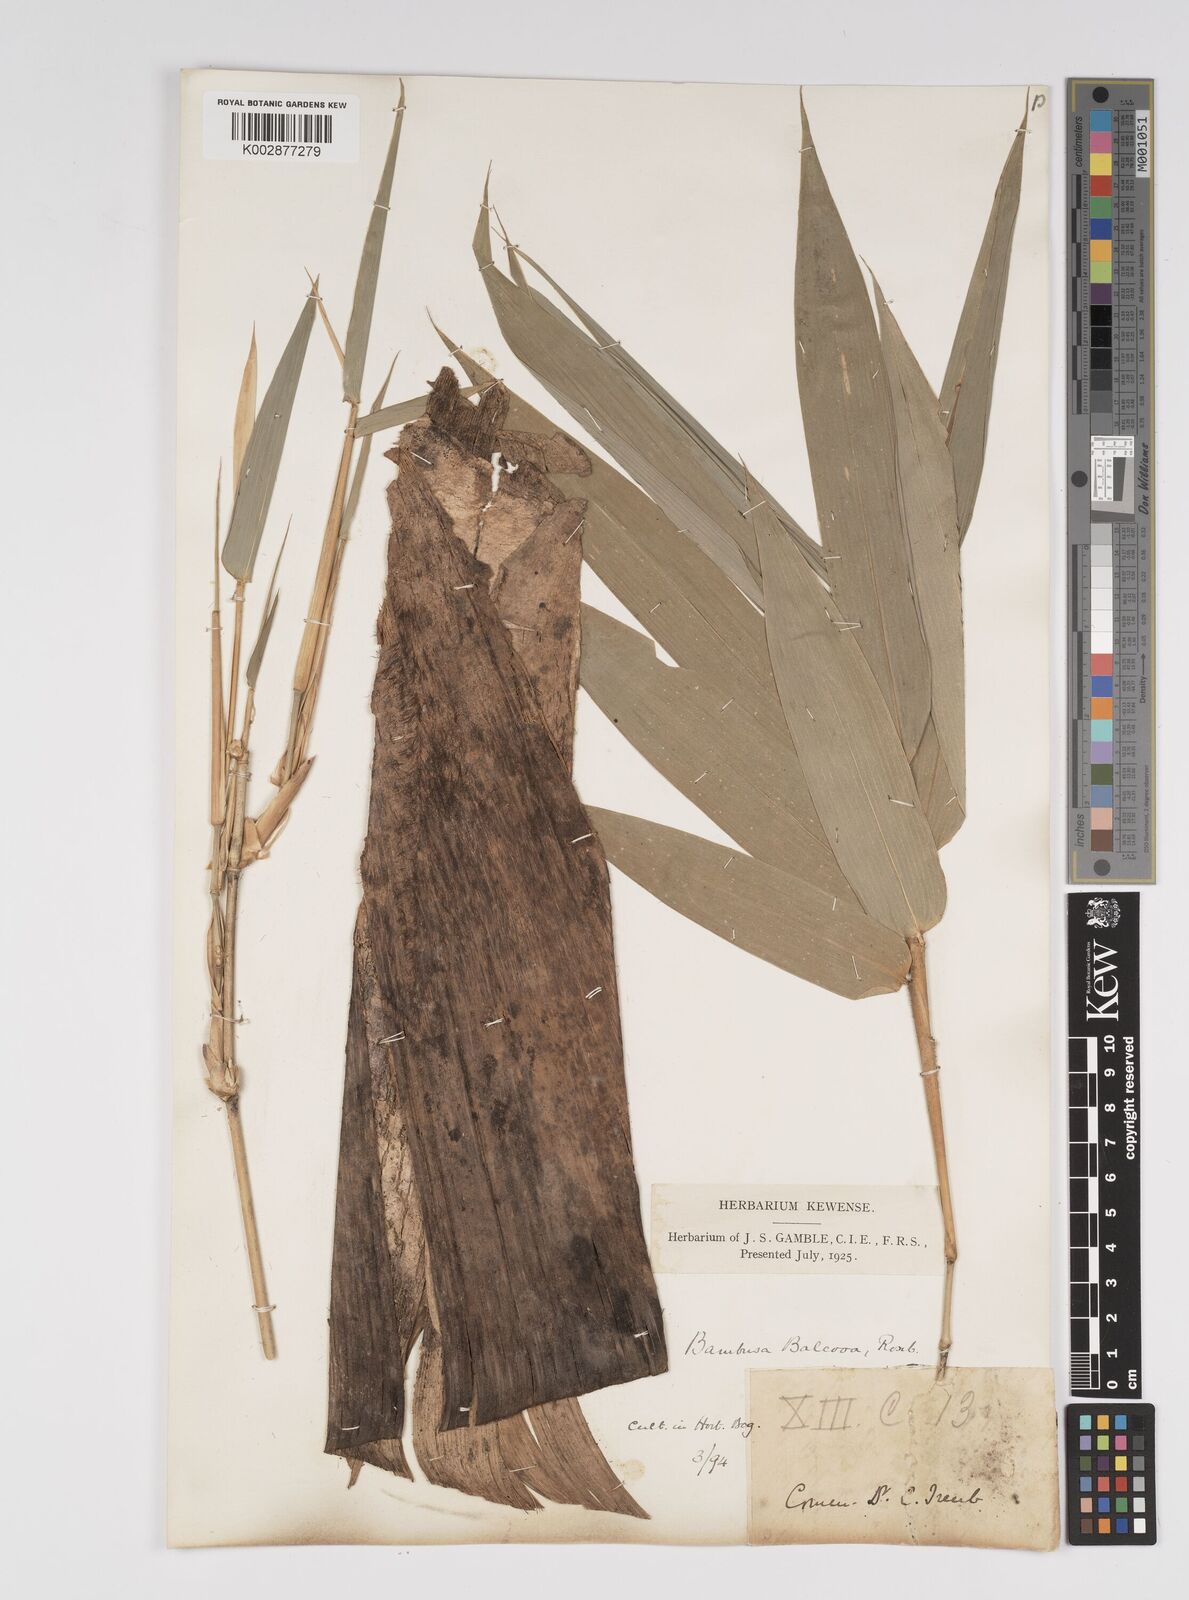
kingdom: Plantae
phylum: Tracheophyta
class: Liliopsida
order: Poales
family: Poaceae
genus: Bambusa
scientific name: Bambusa balcooa
